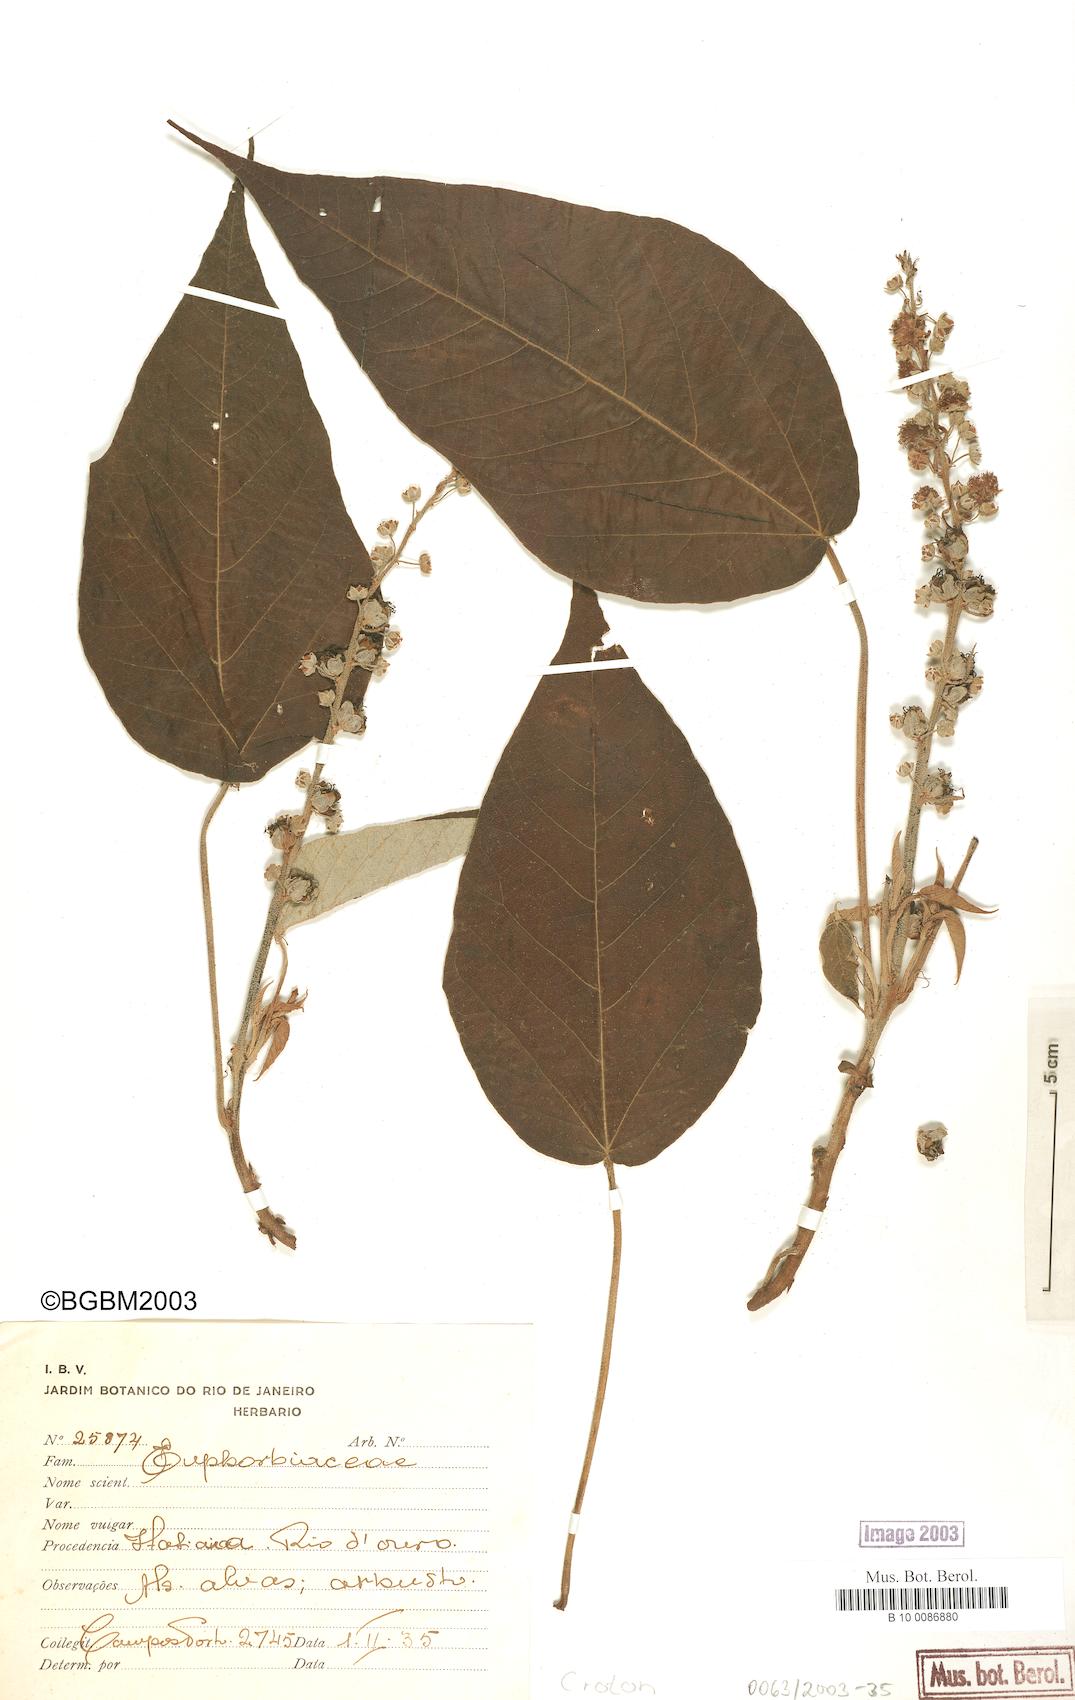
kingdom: Plantae
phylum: Tracheophyta
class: Magnoliopsida
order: Malpighiales
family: Euphorbiaceae
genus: Croton
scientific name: Croton
